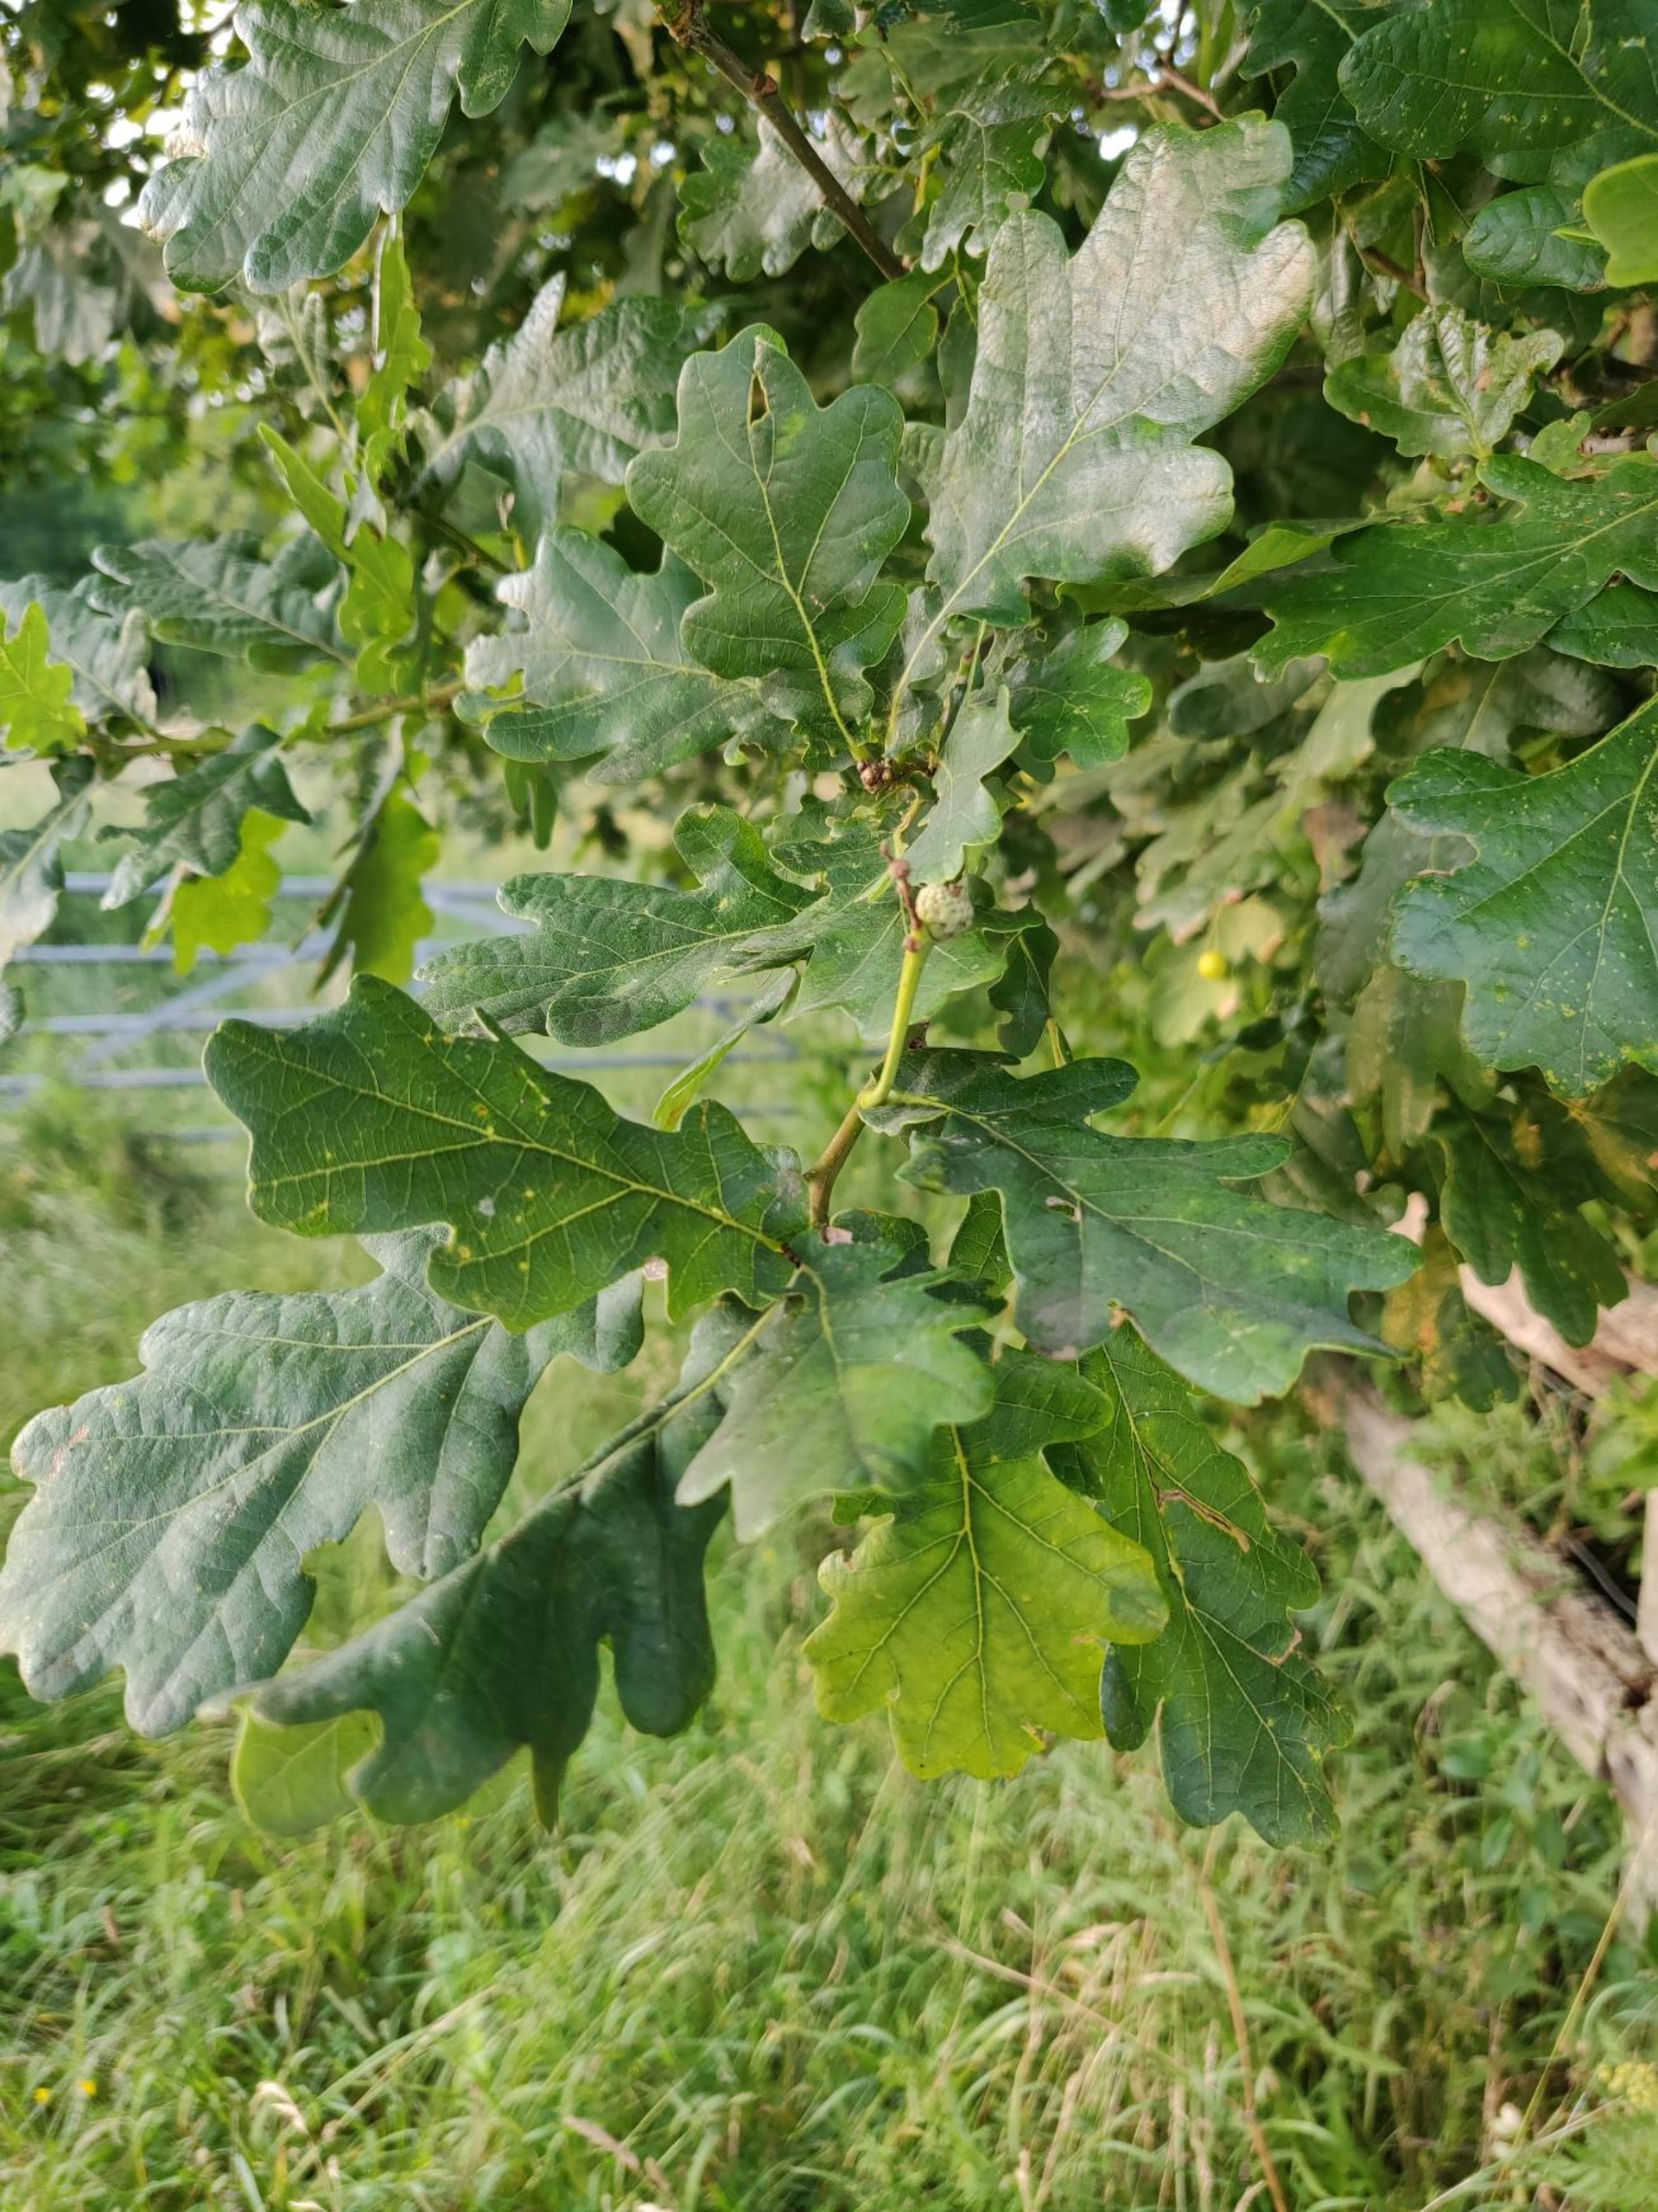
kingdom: Plantae
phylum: Tracheophyta
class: Magnoliopsida
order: Fagales
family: Fagaceae
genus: Quercus
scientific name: Quercus robur
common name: Stilk-eg/almindelig eg
